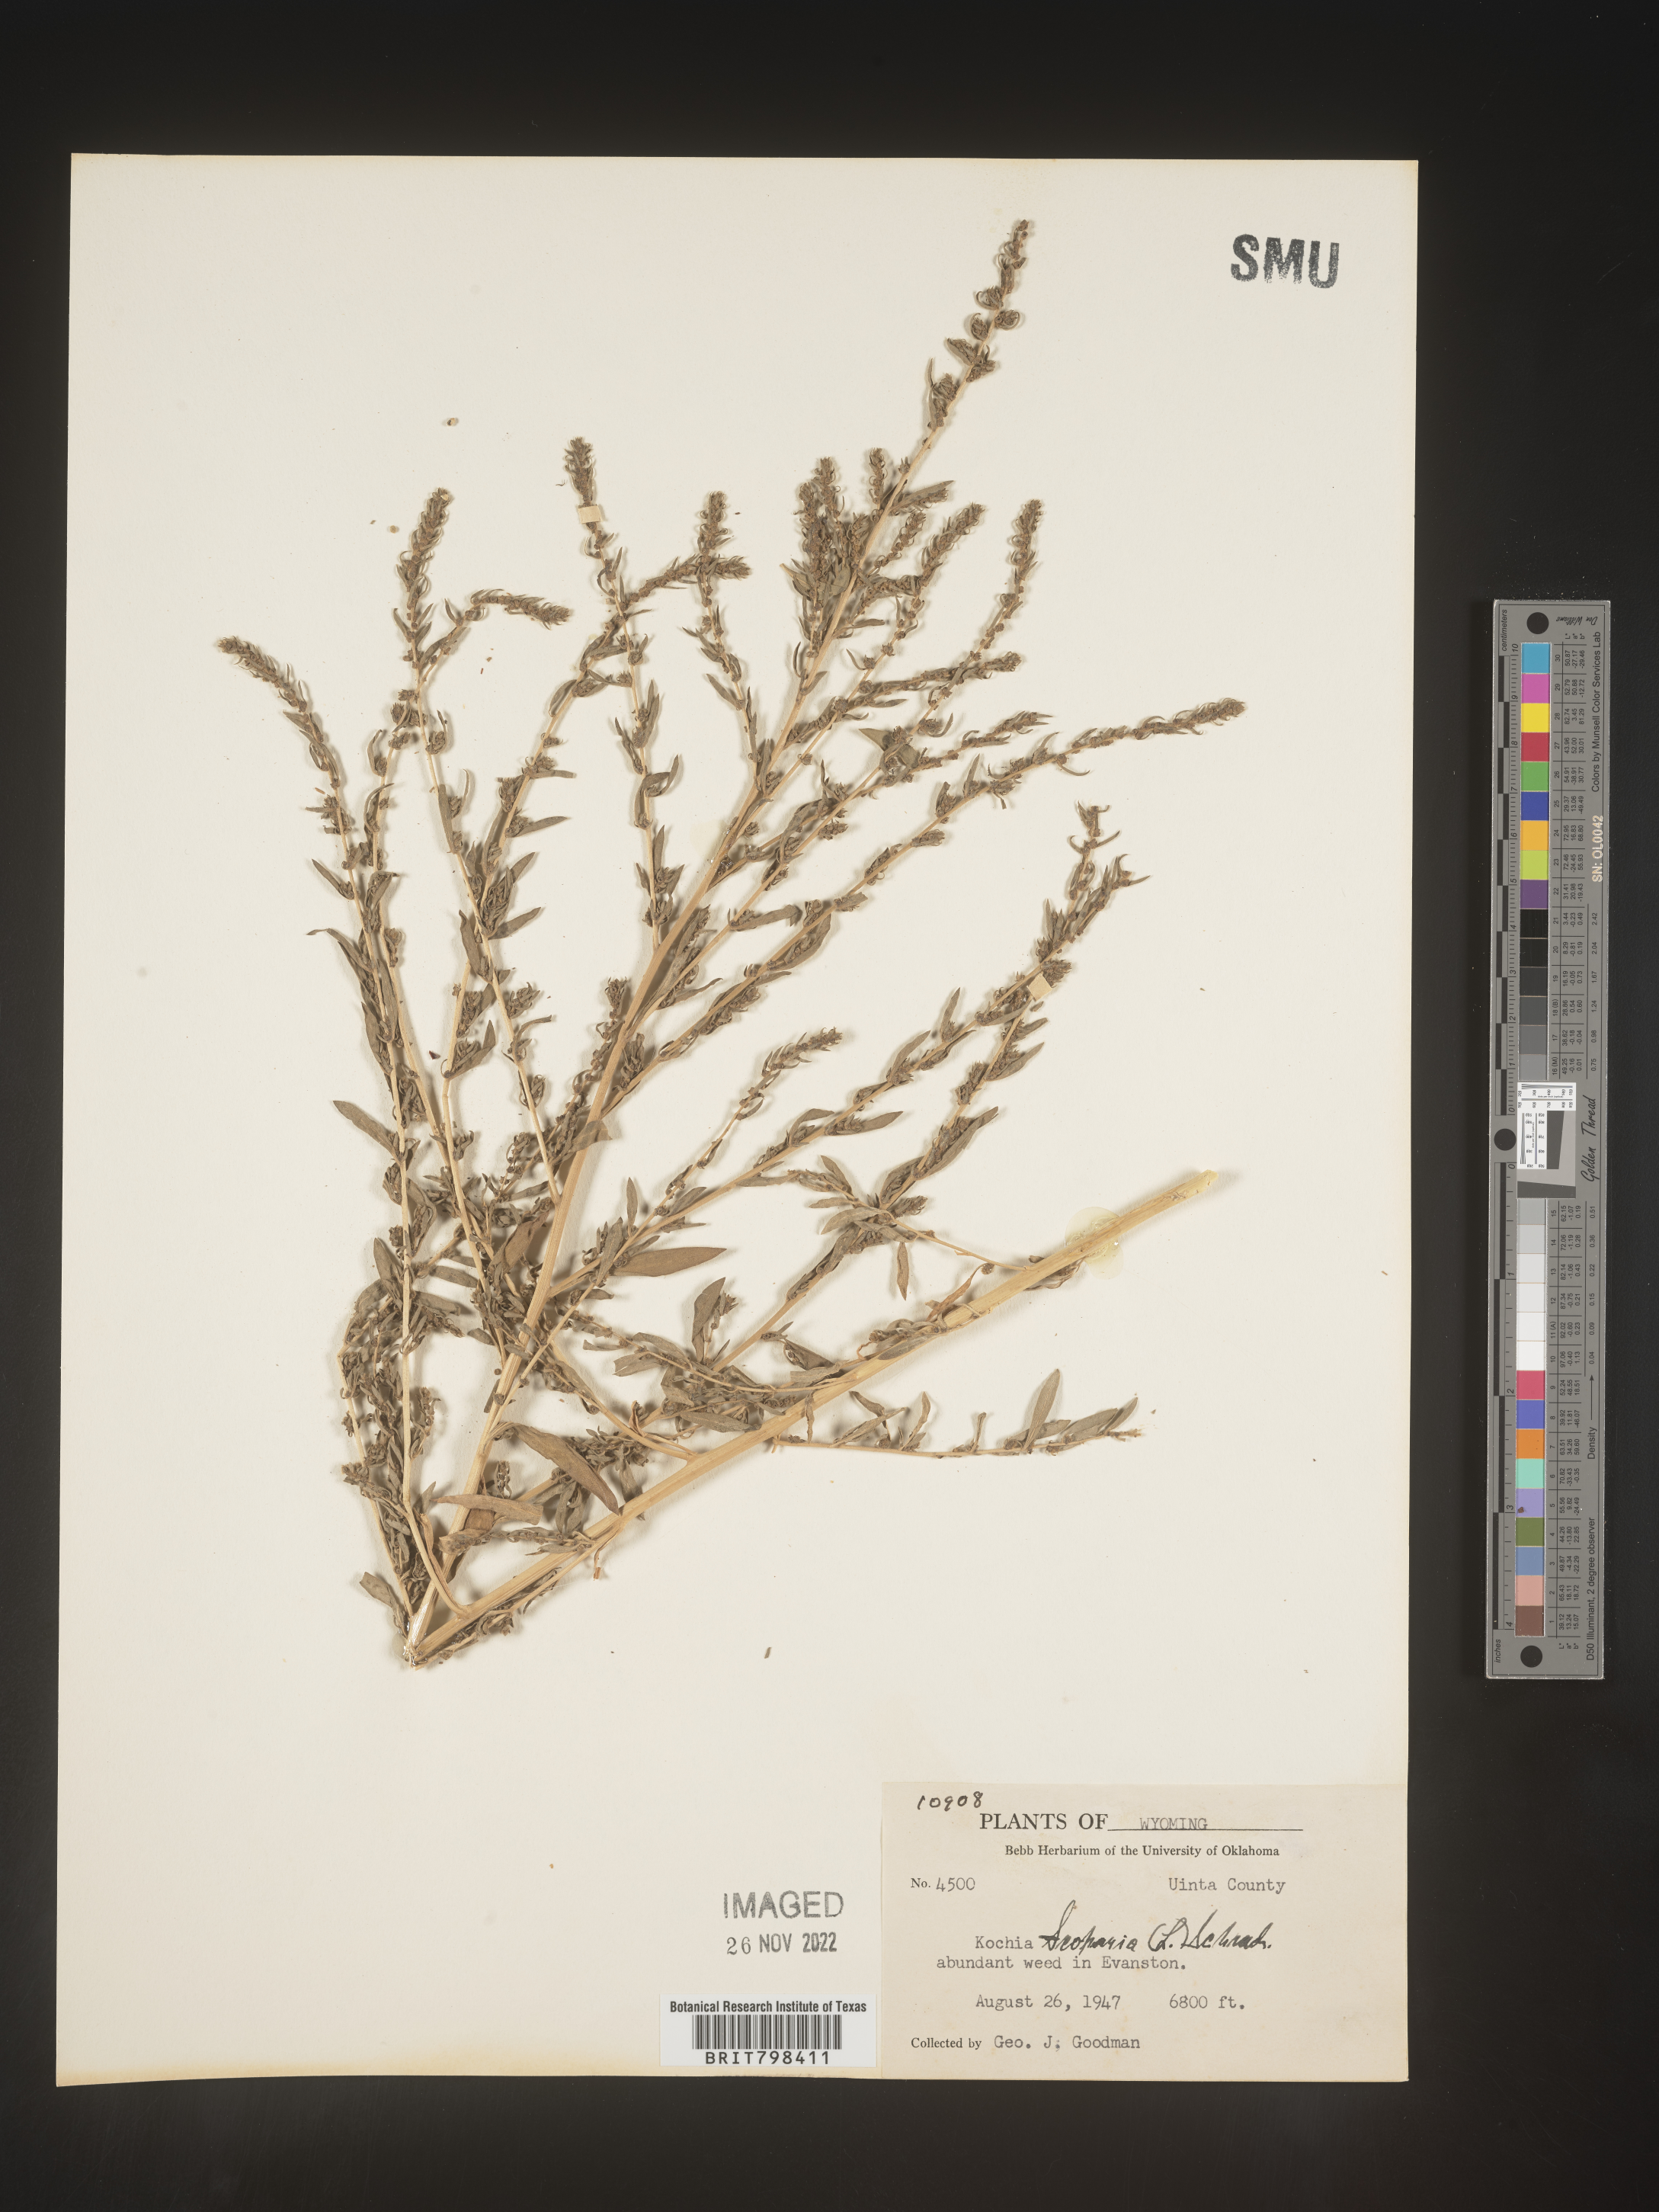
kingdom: Plantae
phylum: Tracheophyta
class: Magnoliopsida
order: Caryophyllales
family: Amaranthaceae
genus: Bassia
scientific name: Bassia scoparia
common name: Belvedere
